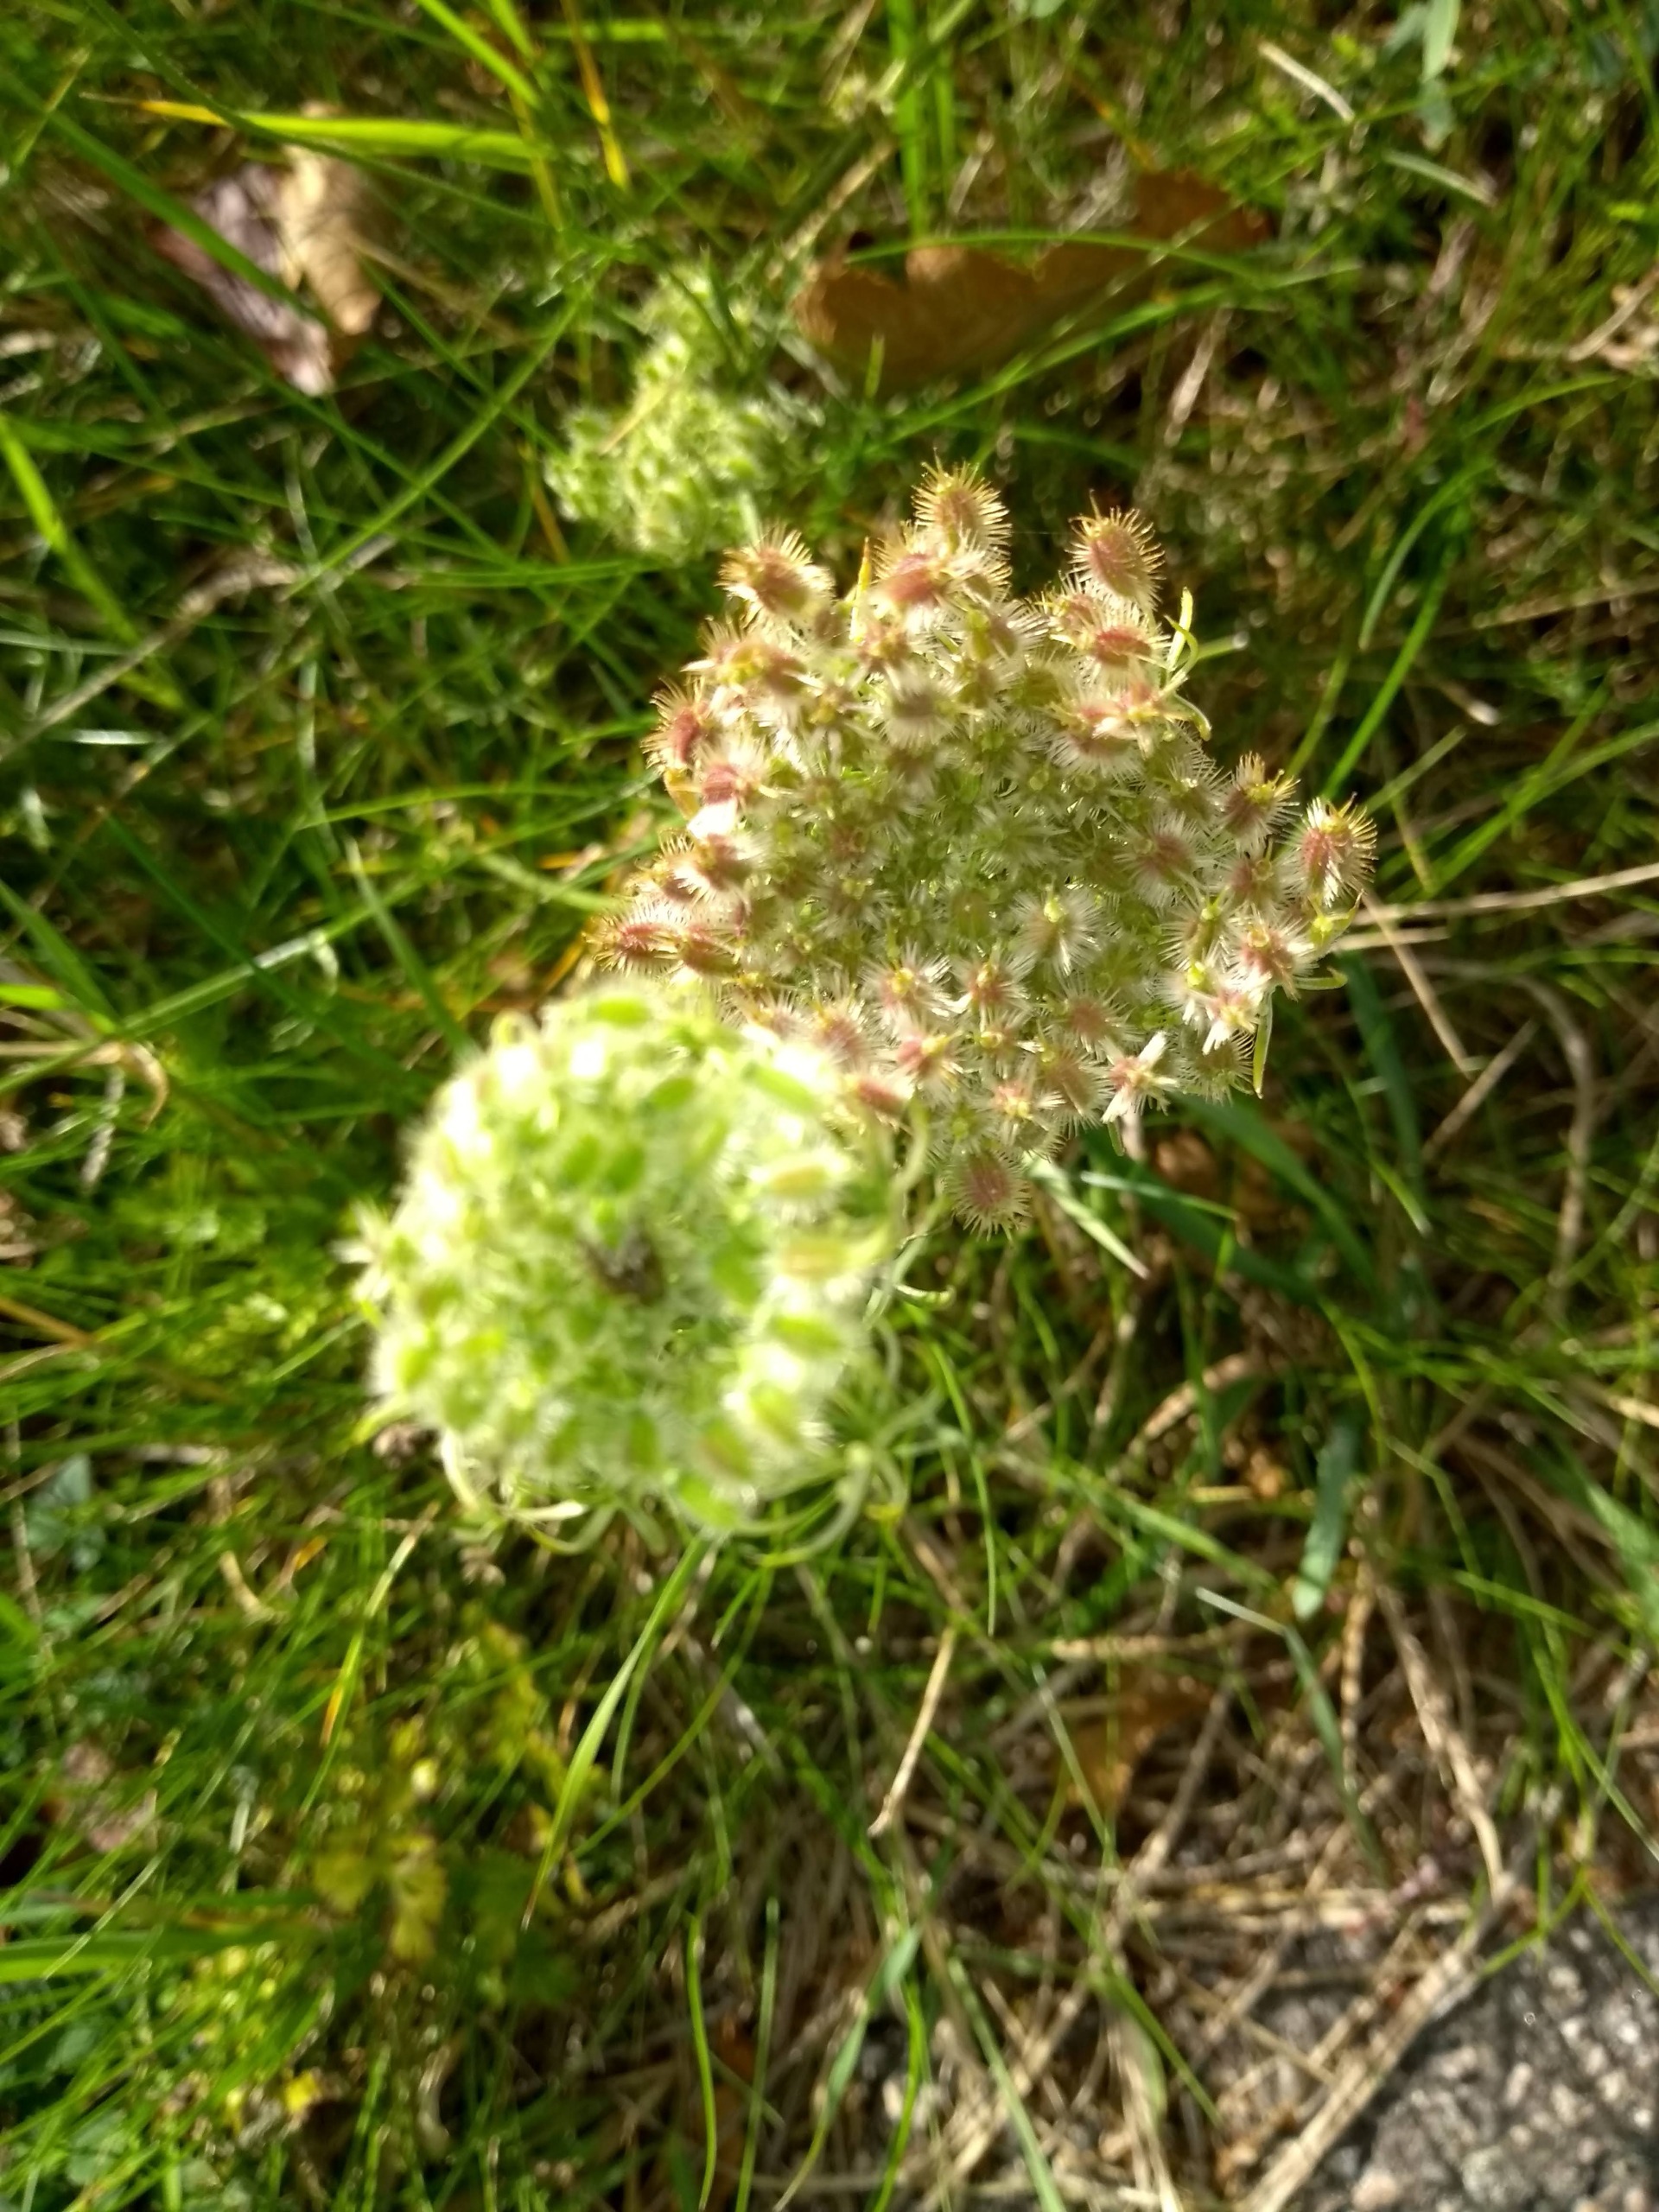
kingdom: Plantae
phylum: Tracheophyta
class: Magnoliopsida
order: Apiales
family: Apiaceae
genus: Daucus
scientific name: Daucus carota
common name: Gulerod
